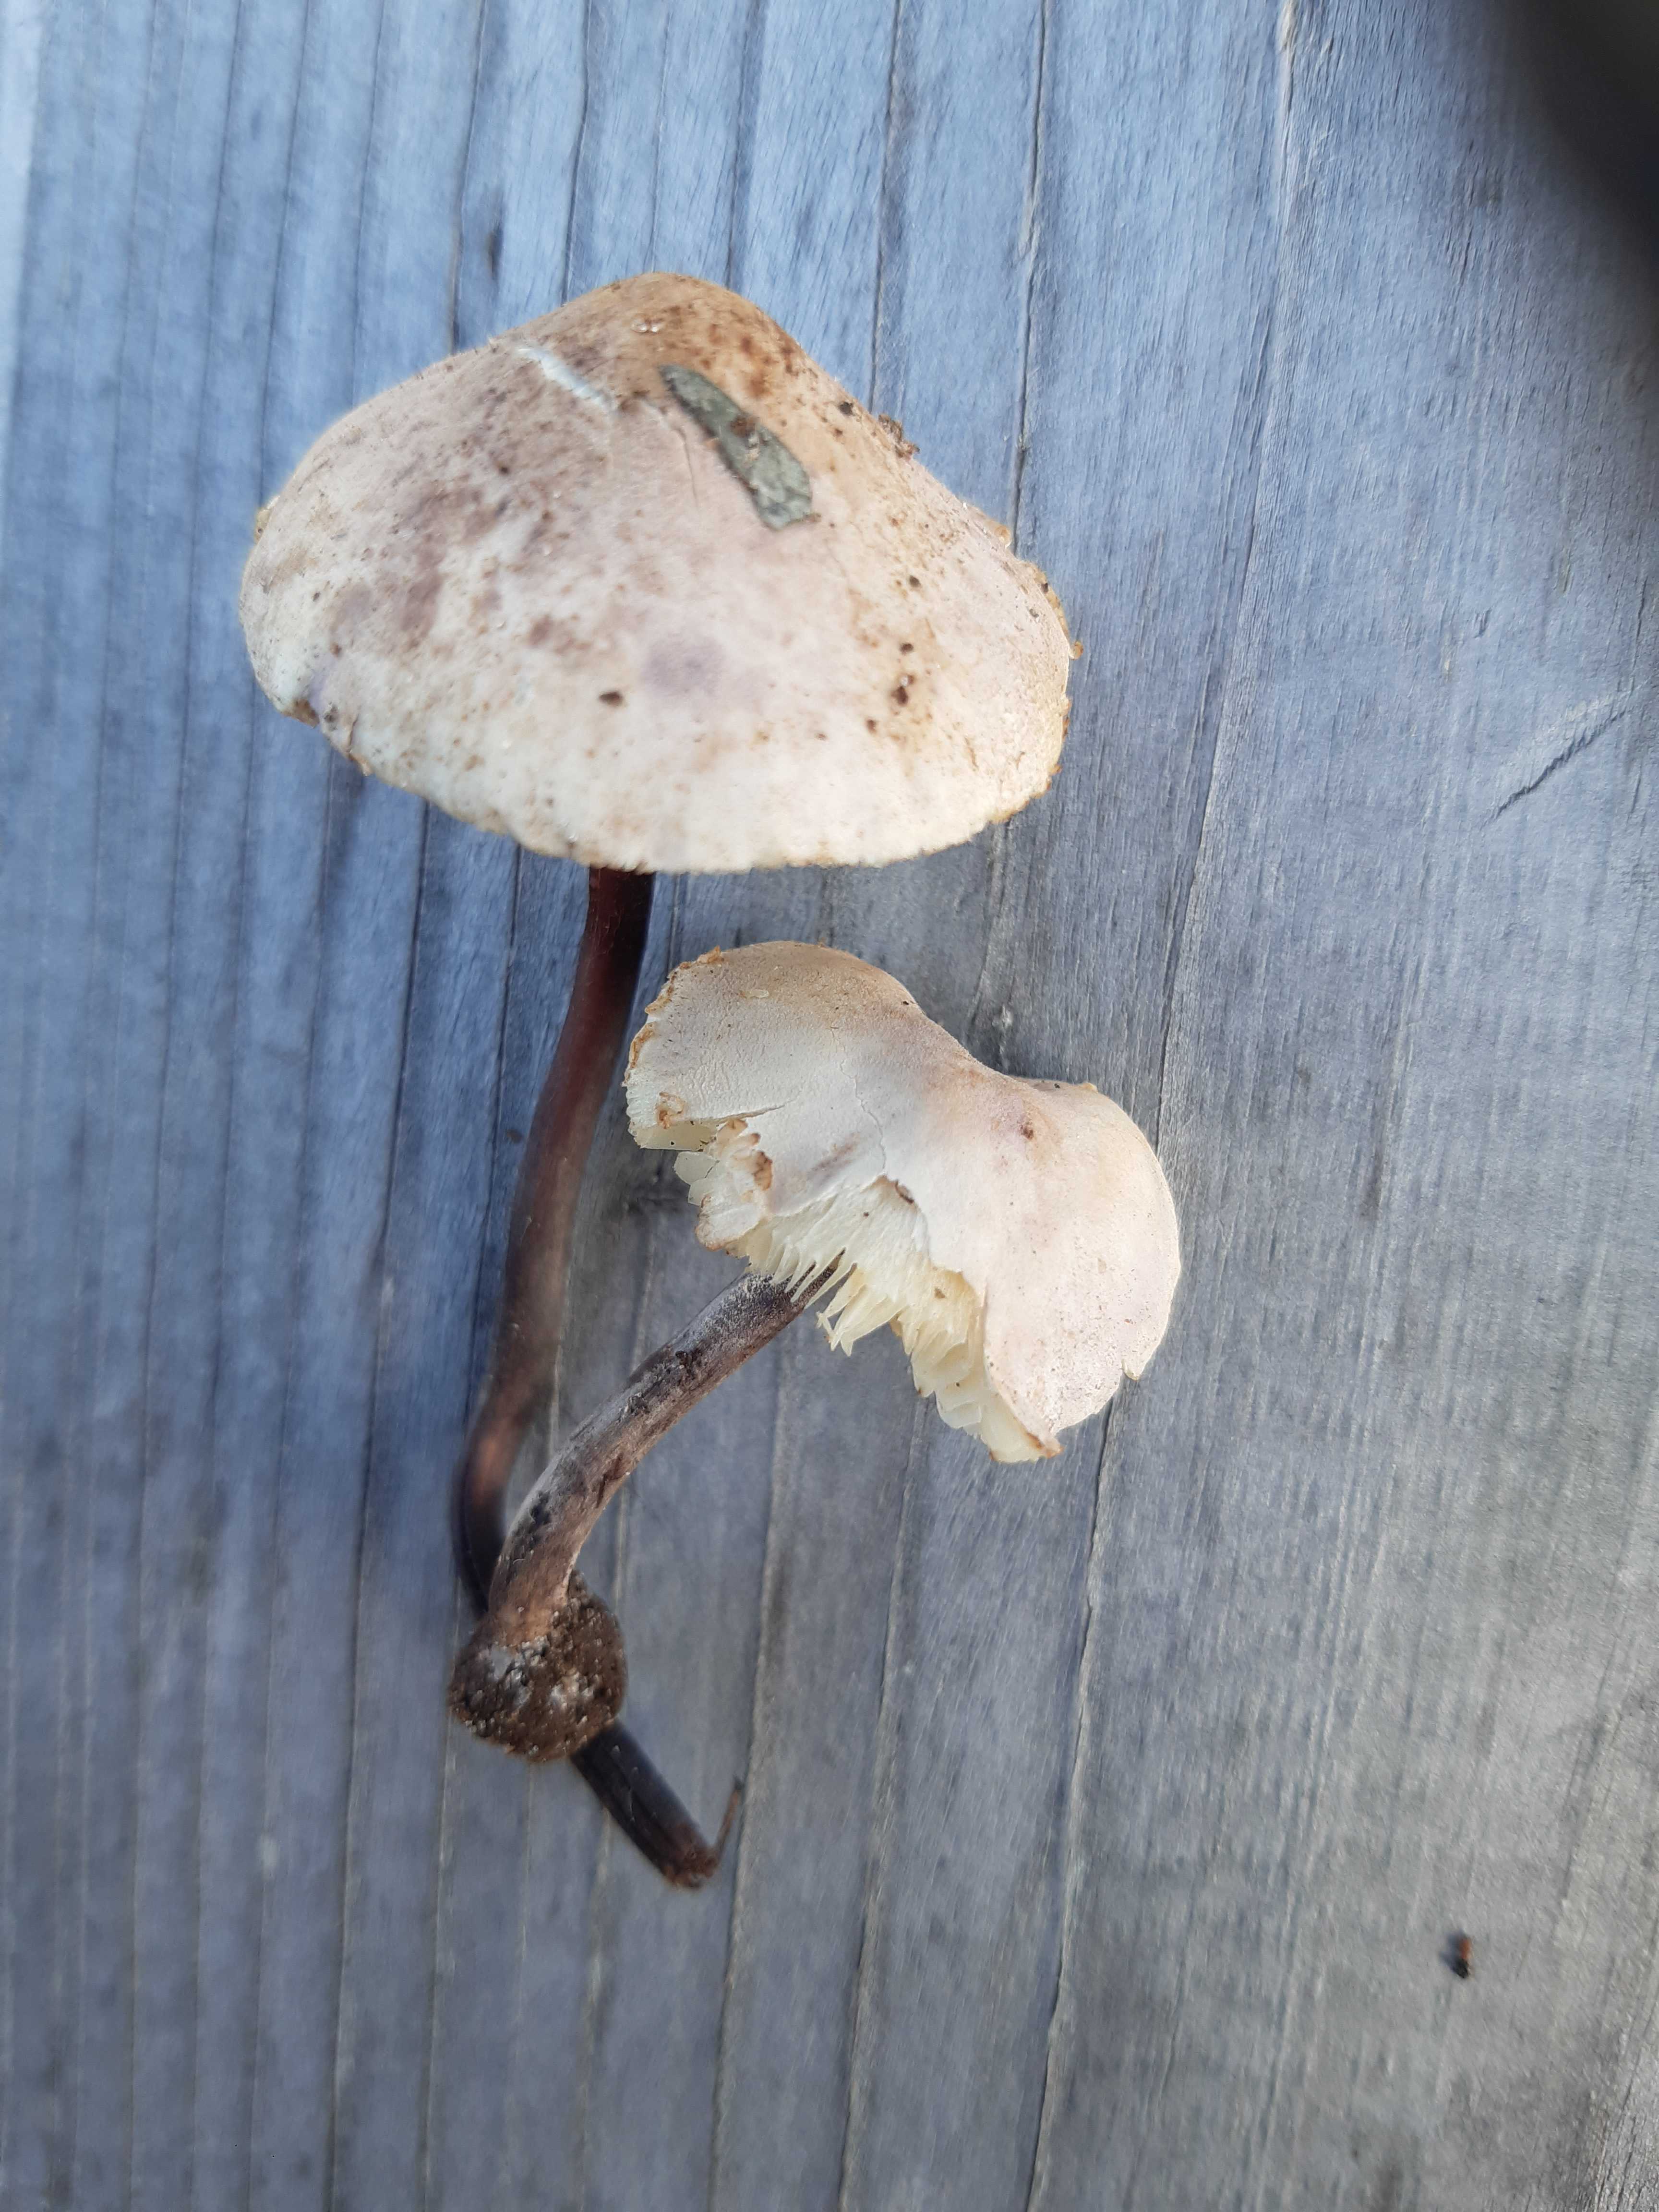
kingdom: Fungi
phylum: Basidiomycota
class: Agaricomycetes
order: Agaricales
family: Agaricaceae
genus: Cystolepiota
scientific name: Cystolepiota bucknallii
